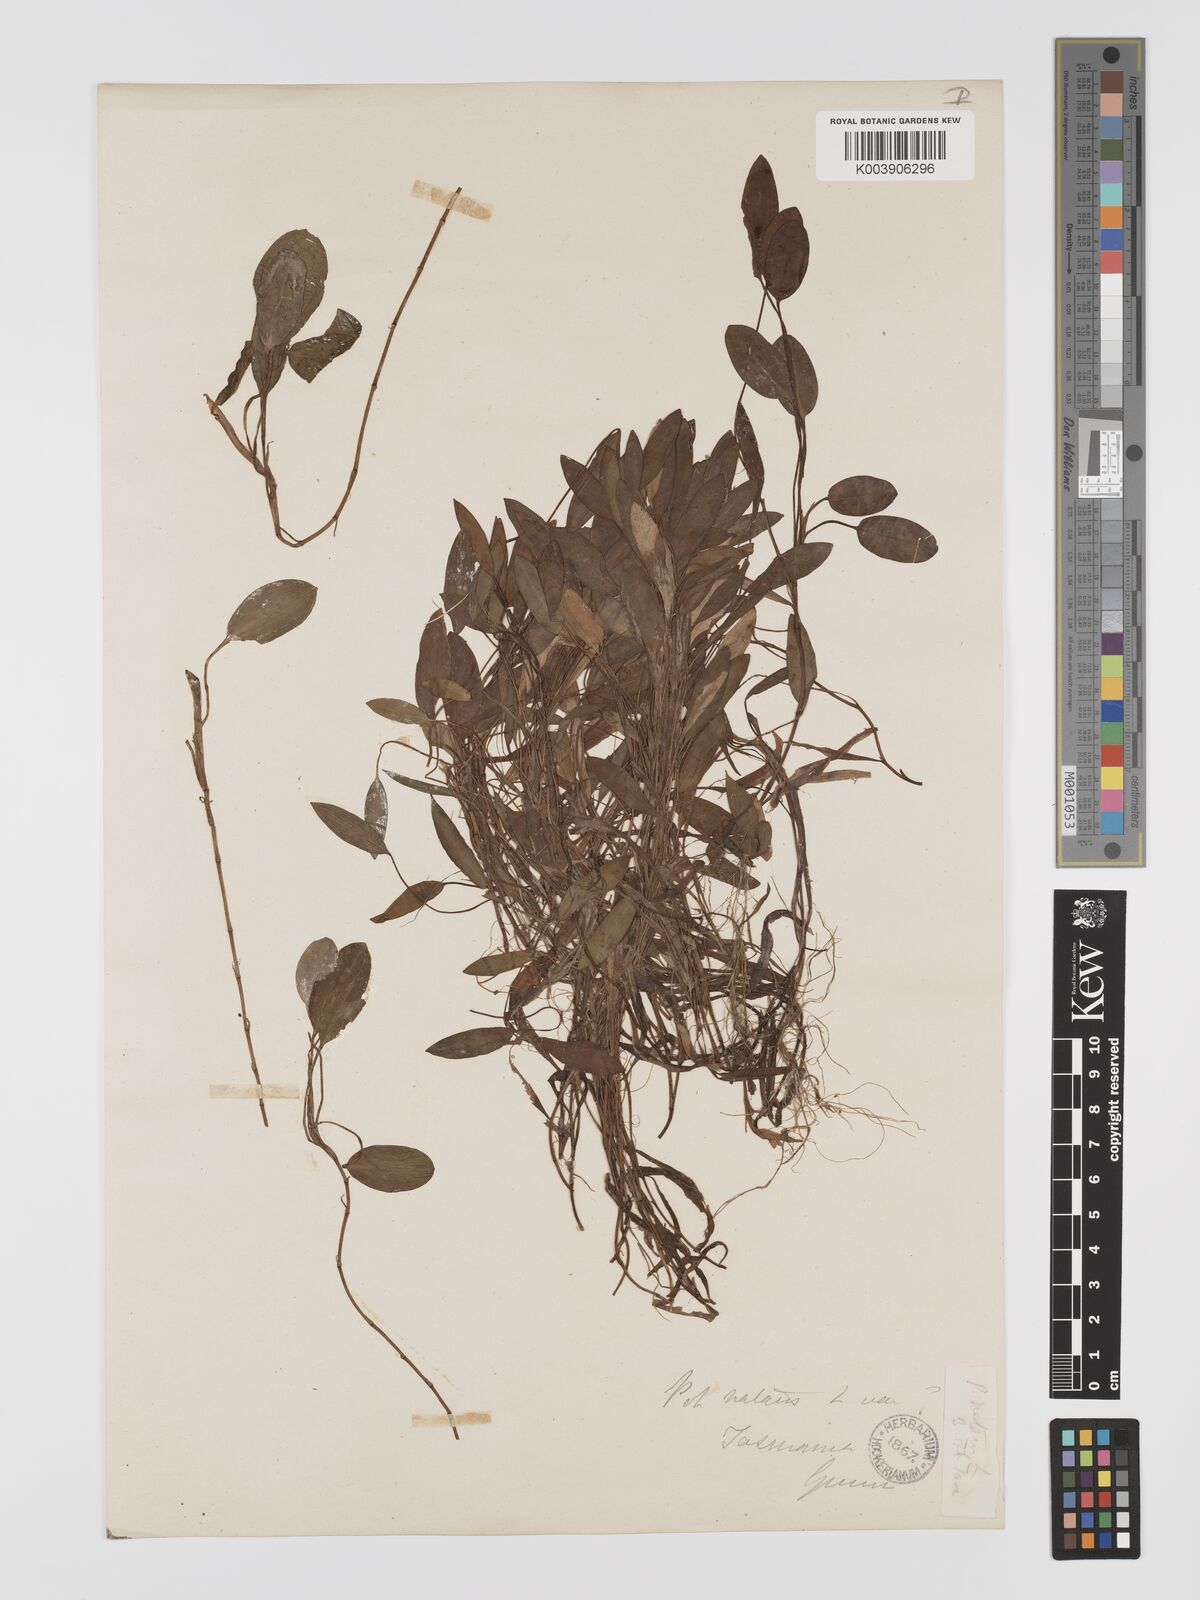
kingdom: Plantae
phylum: Tracheophyta
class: Liliopsida
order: Alismatales
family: Potamogetonaceae
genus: Potamogeton
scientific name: Potamogeton drummondii
